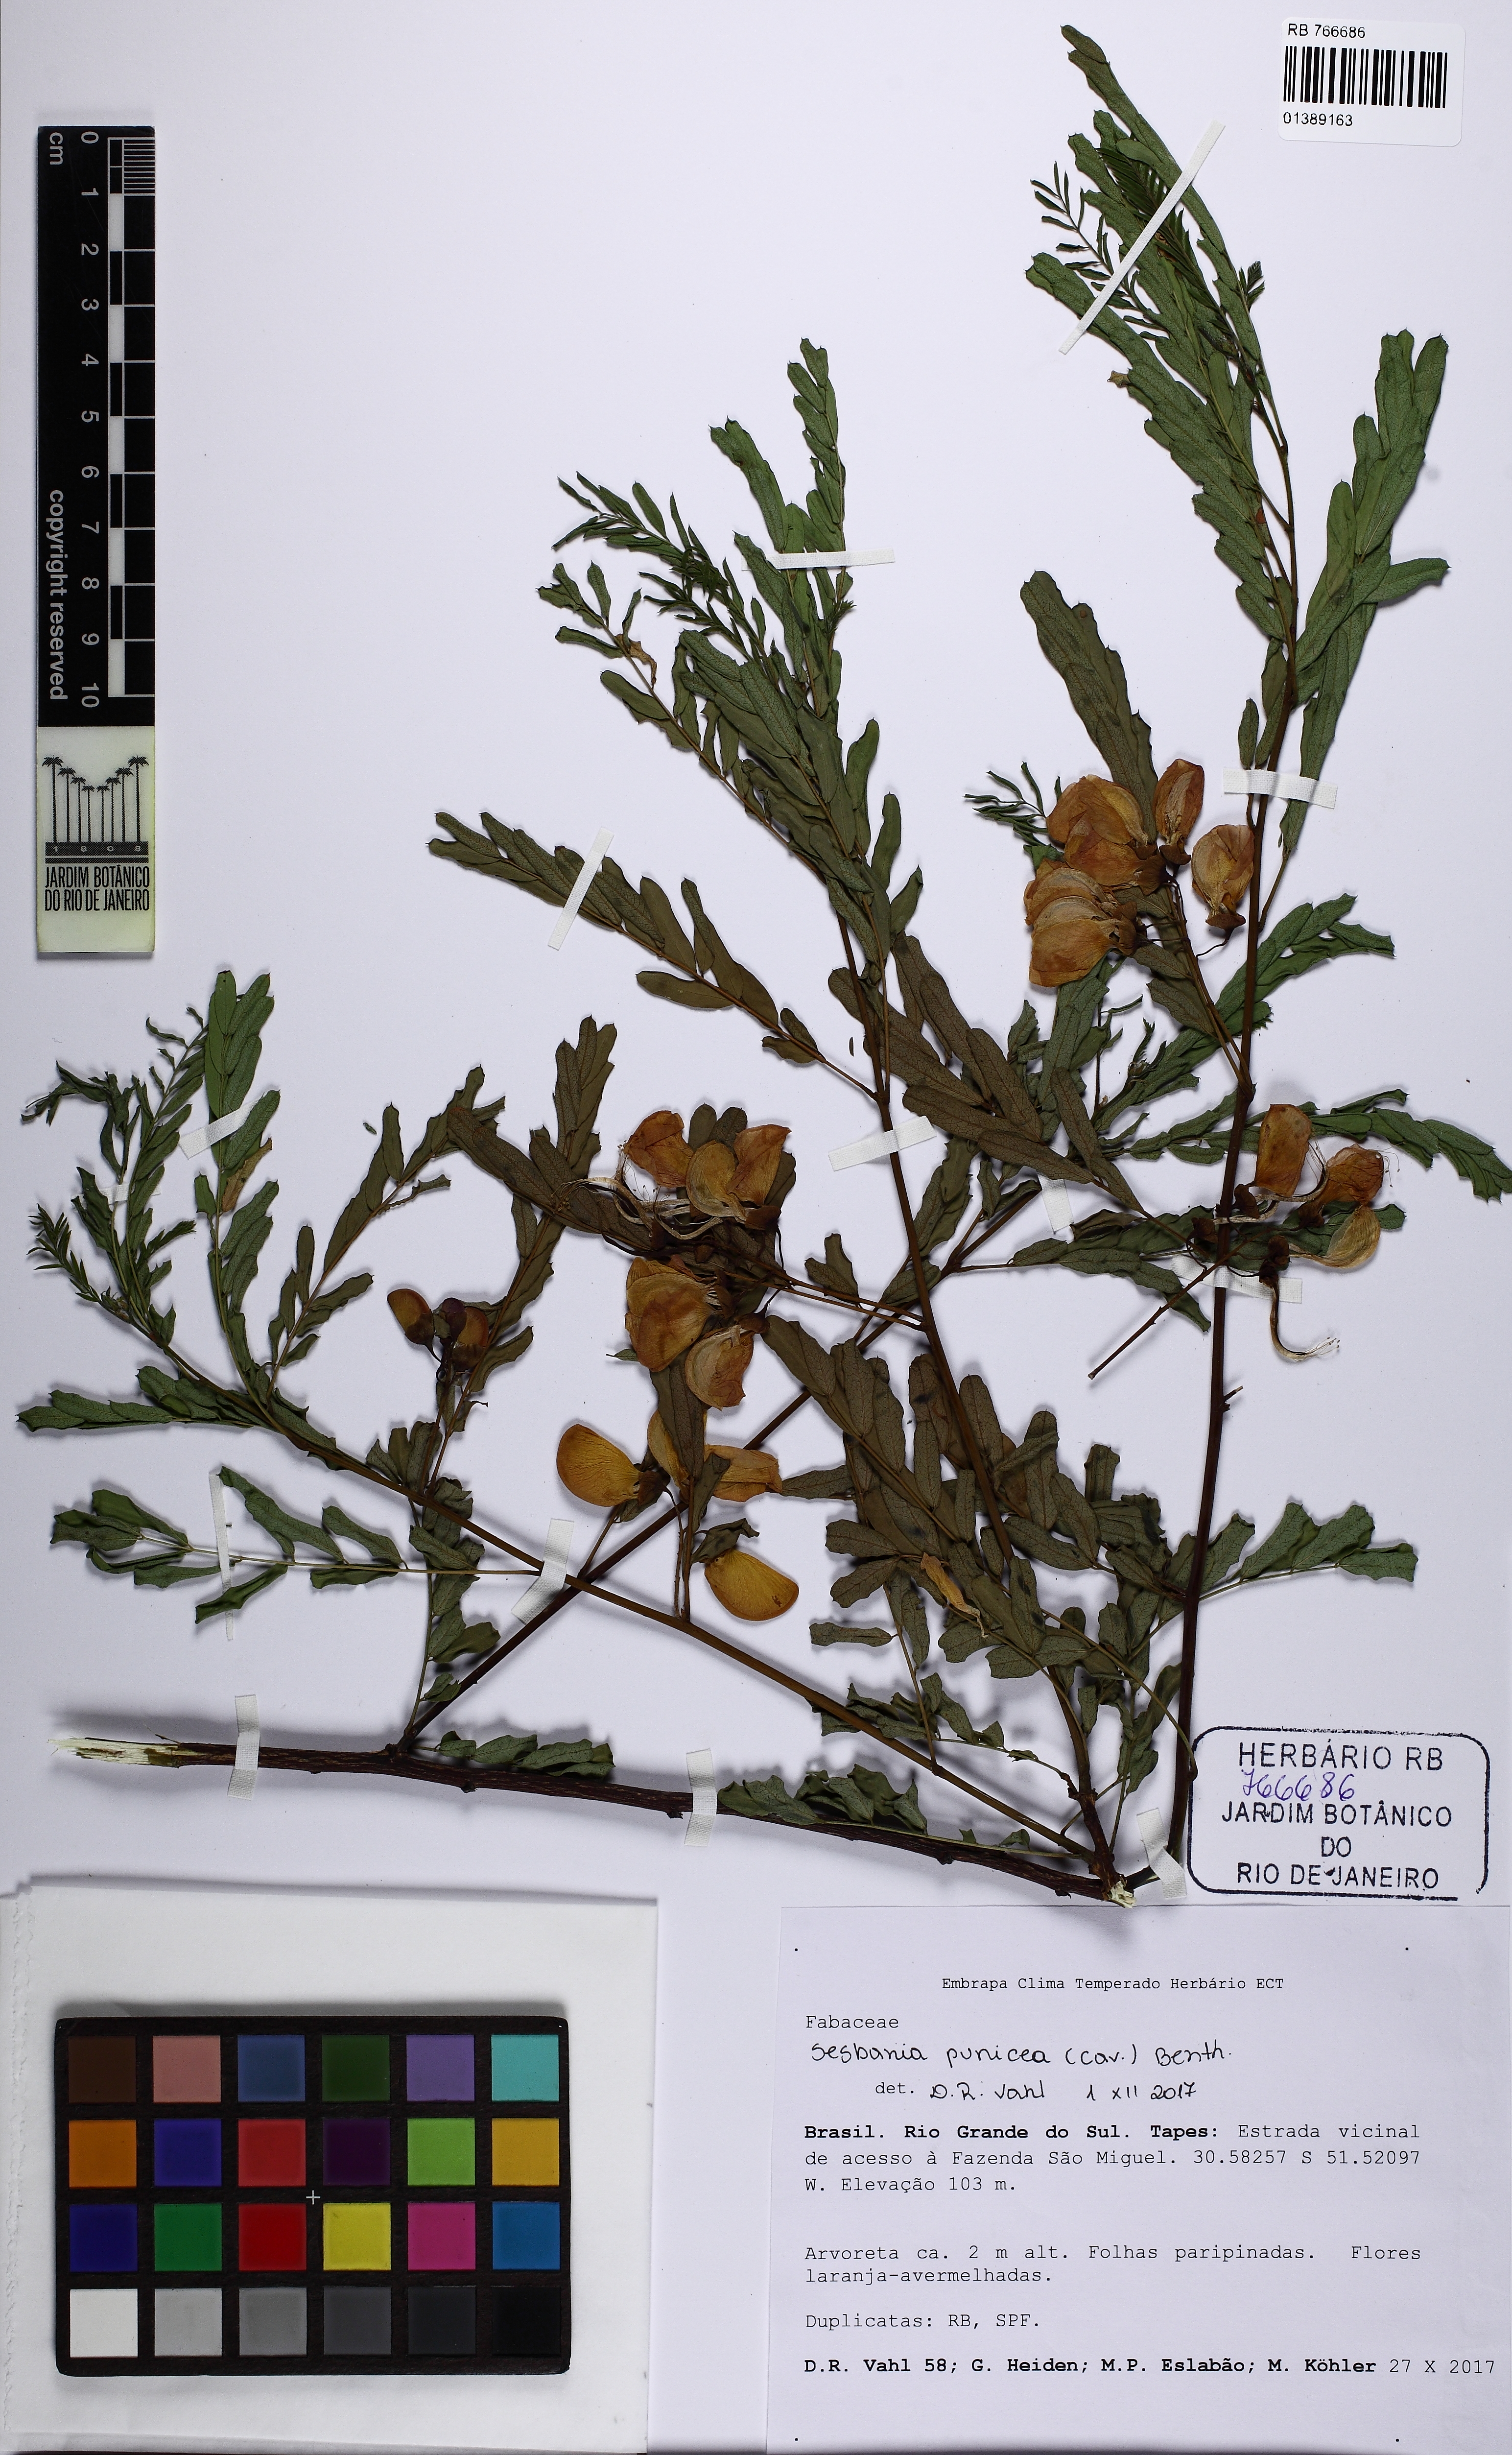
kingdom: Plantae
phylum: Tracheophyta
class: Magnoliopsida
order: Fabales
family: Fabaceae
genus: Sesbania
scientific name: Sesbania punicea
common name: Rattlebox
